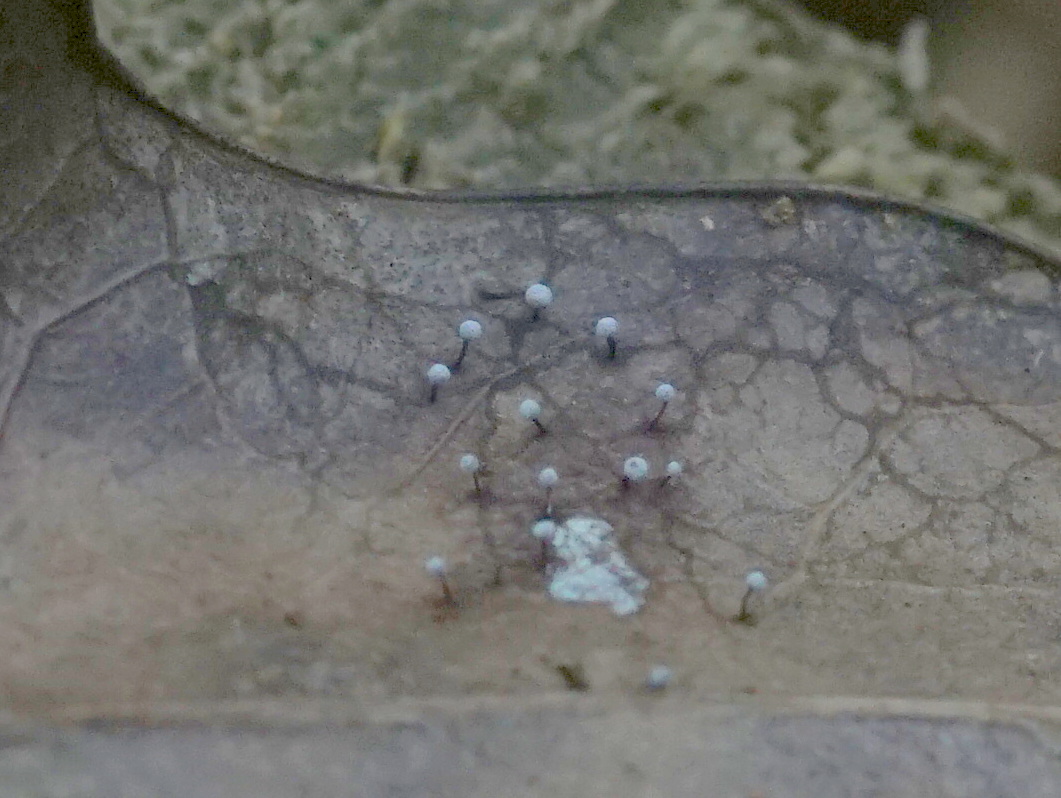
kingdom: Protozoa
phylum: Mycetozoa
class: Myxomycetes
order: Physarales
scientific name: Physarales
